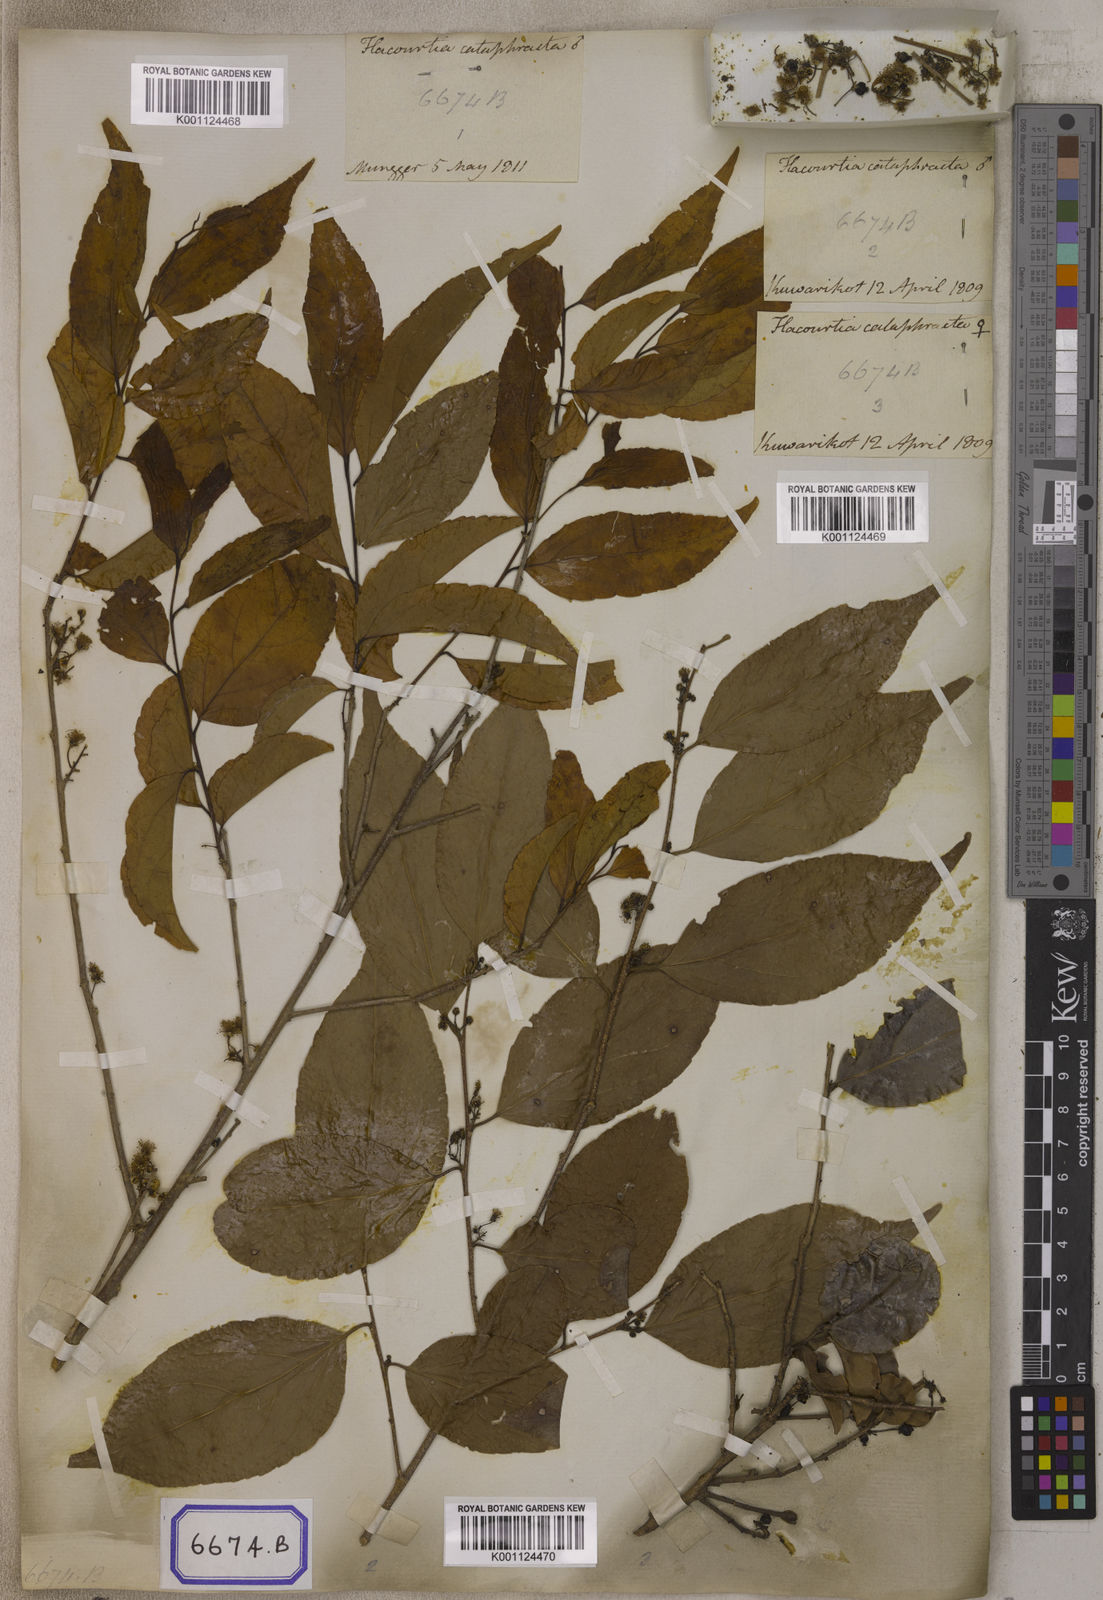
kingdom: Plantae
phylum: Tracheophyta
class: Magnoliopsida
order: Malpighiales
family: Salicaceae
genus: Flacourtia
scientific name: Flacourtia
